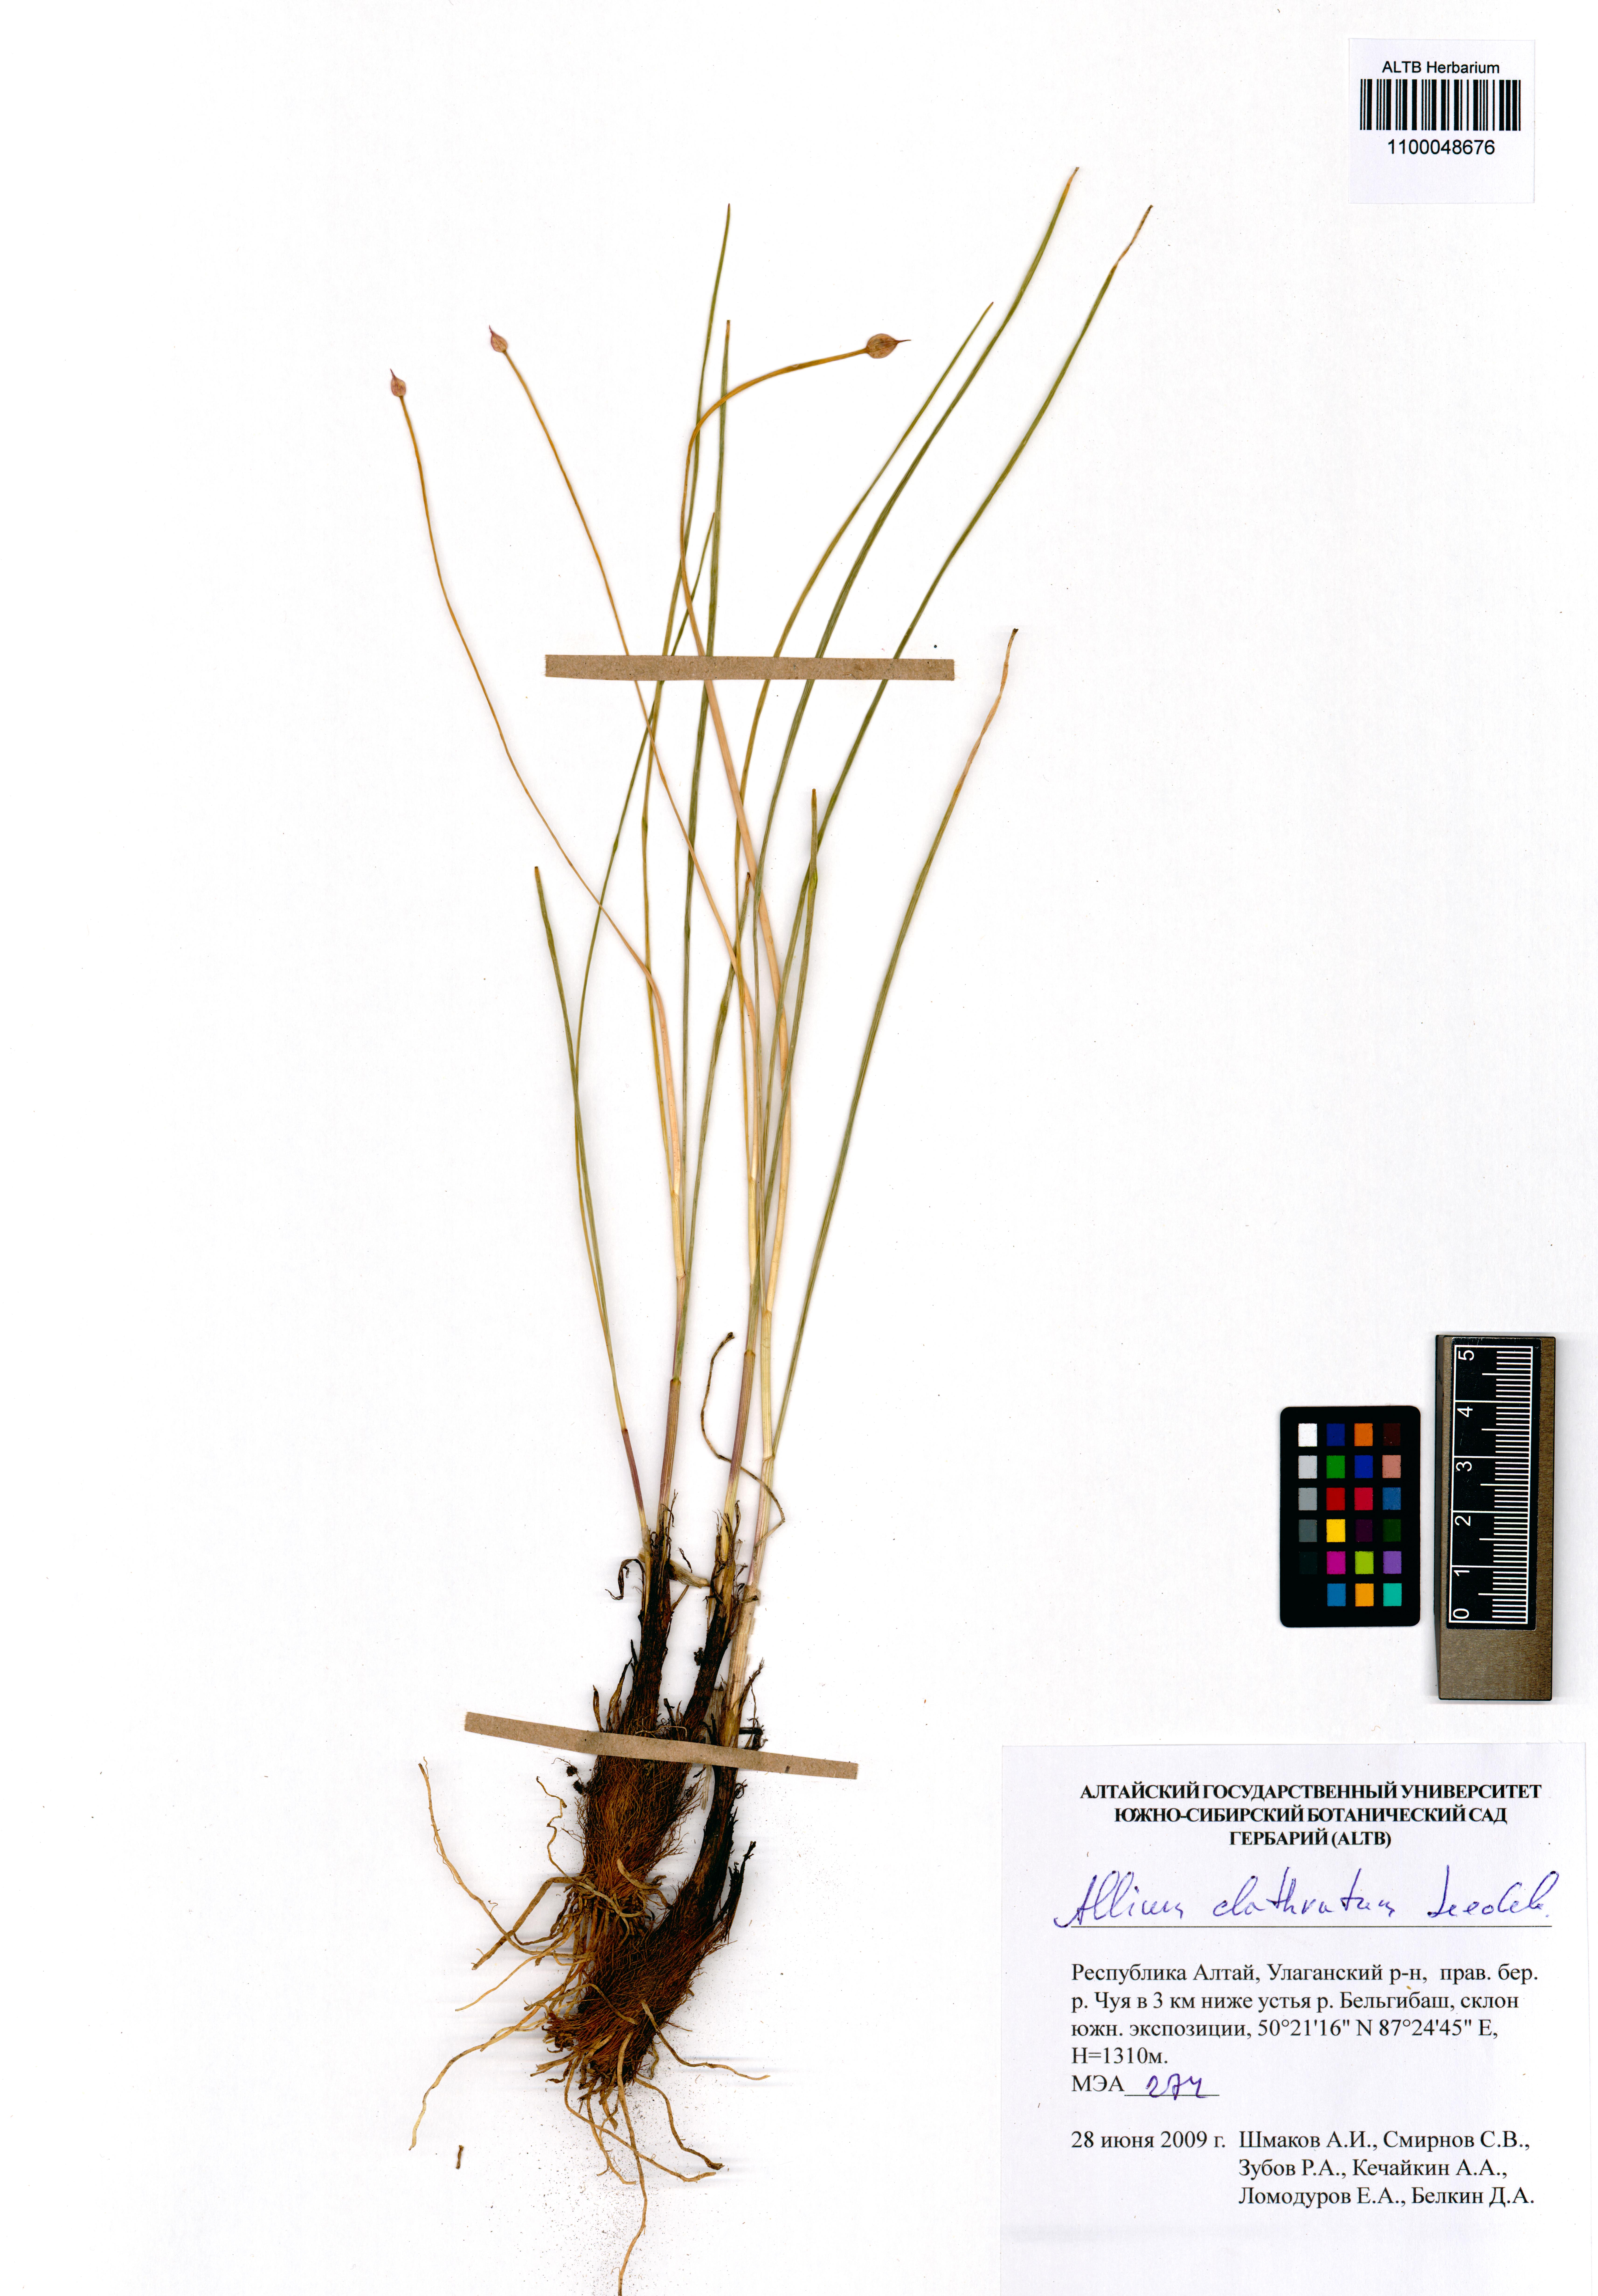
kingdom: Plantae
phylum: Tracheophyta
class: Liliopsida
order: Asparagales
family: Amaryllidaceae
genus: Allium
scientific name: Allium clathratum
